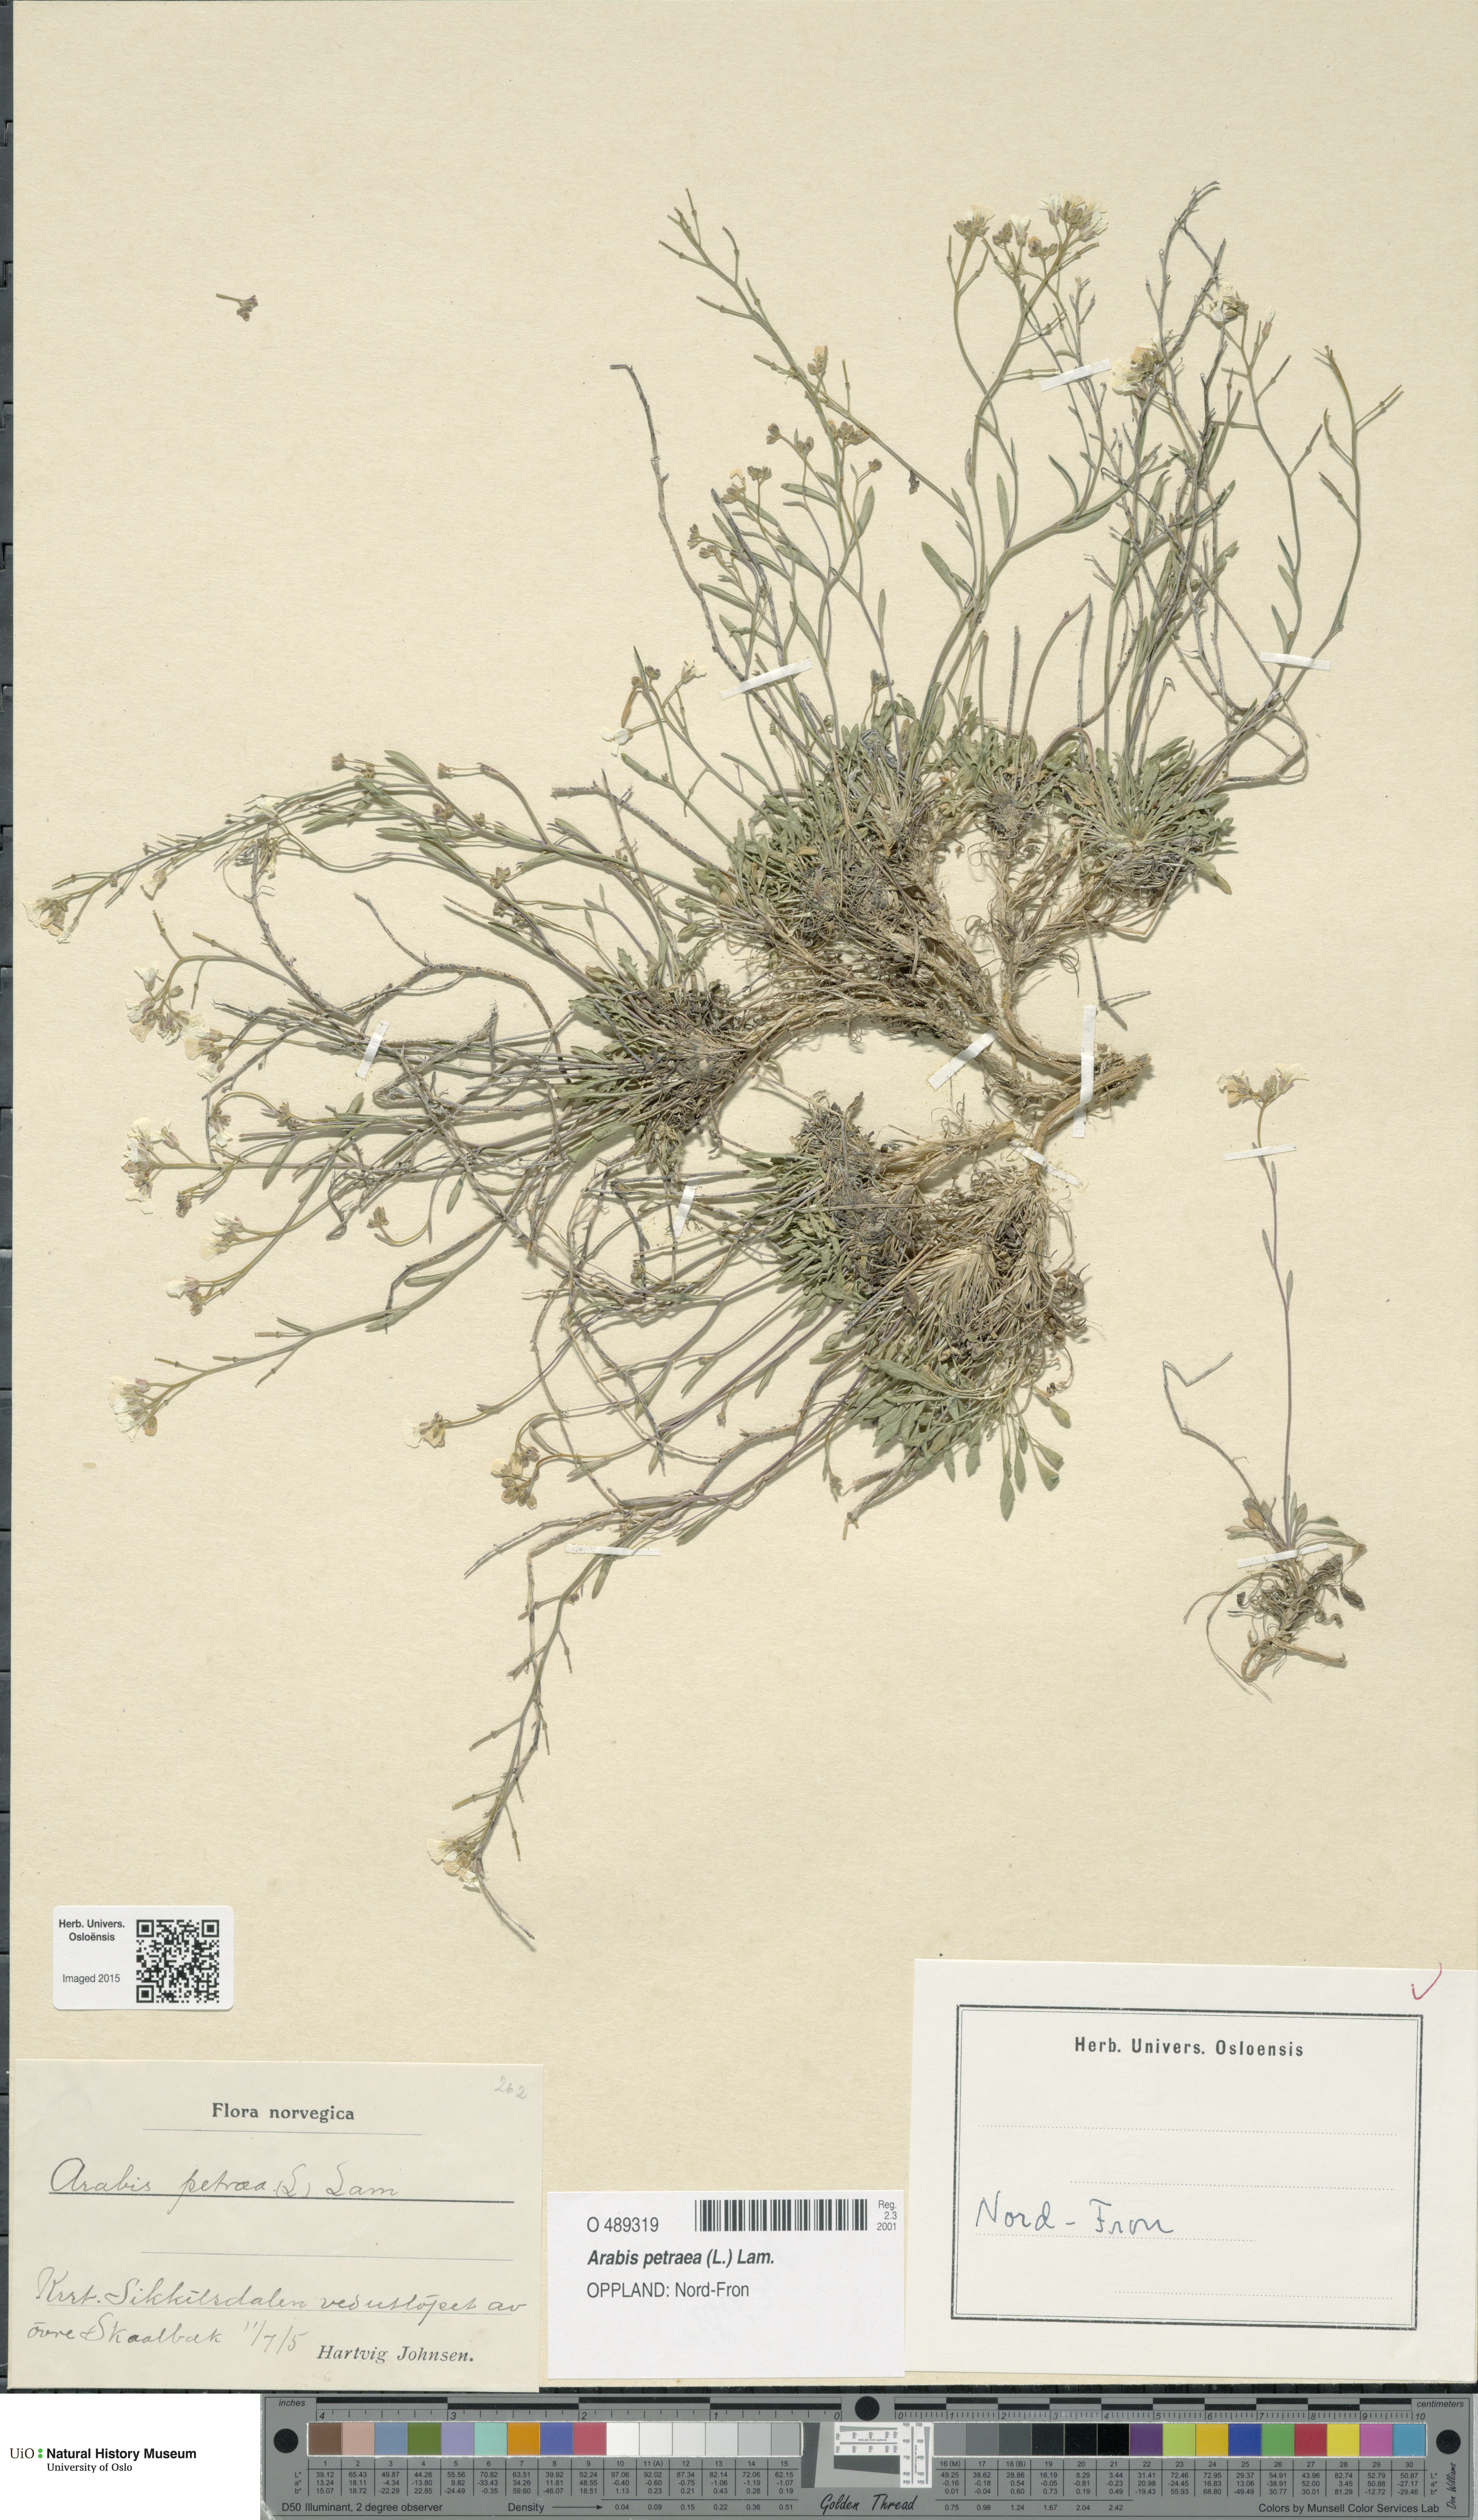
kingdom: Plantae
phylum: Tracheophyta
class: Magnoliopsida
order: Brassicales
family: Brassicaceae
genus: Arabidopsis
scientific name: Arabidopsis petraea
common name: Northern rock-cress
